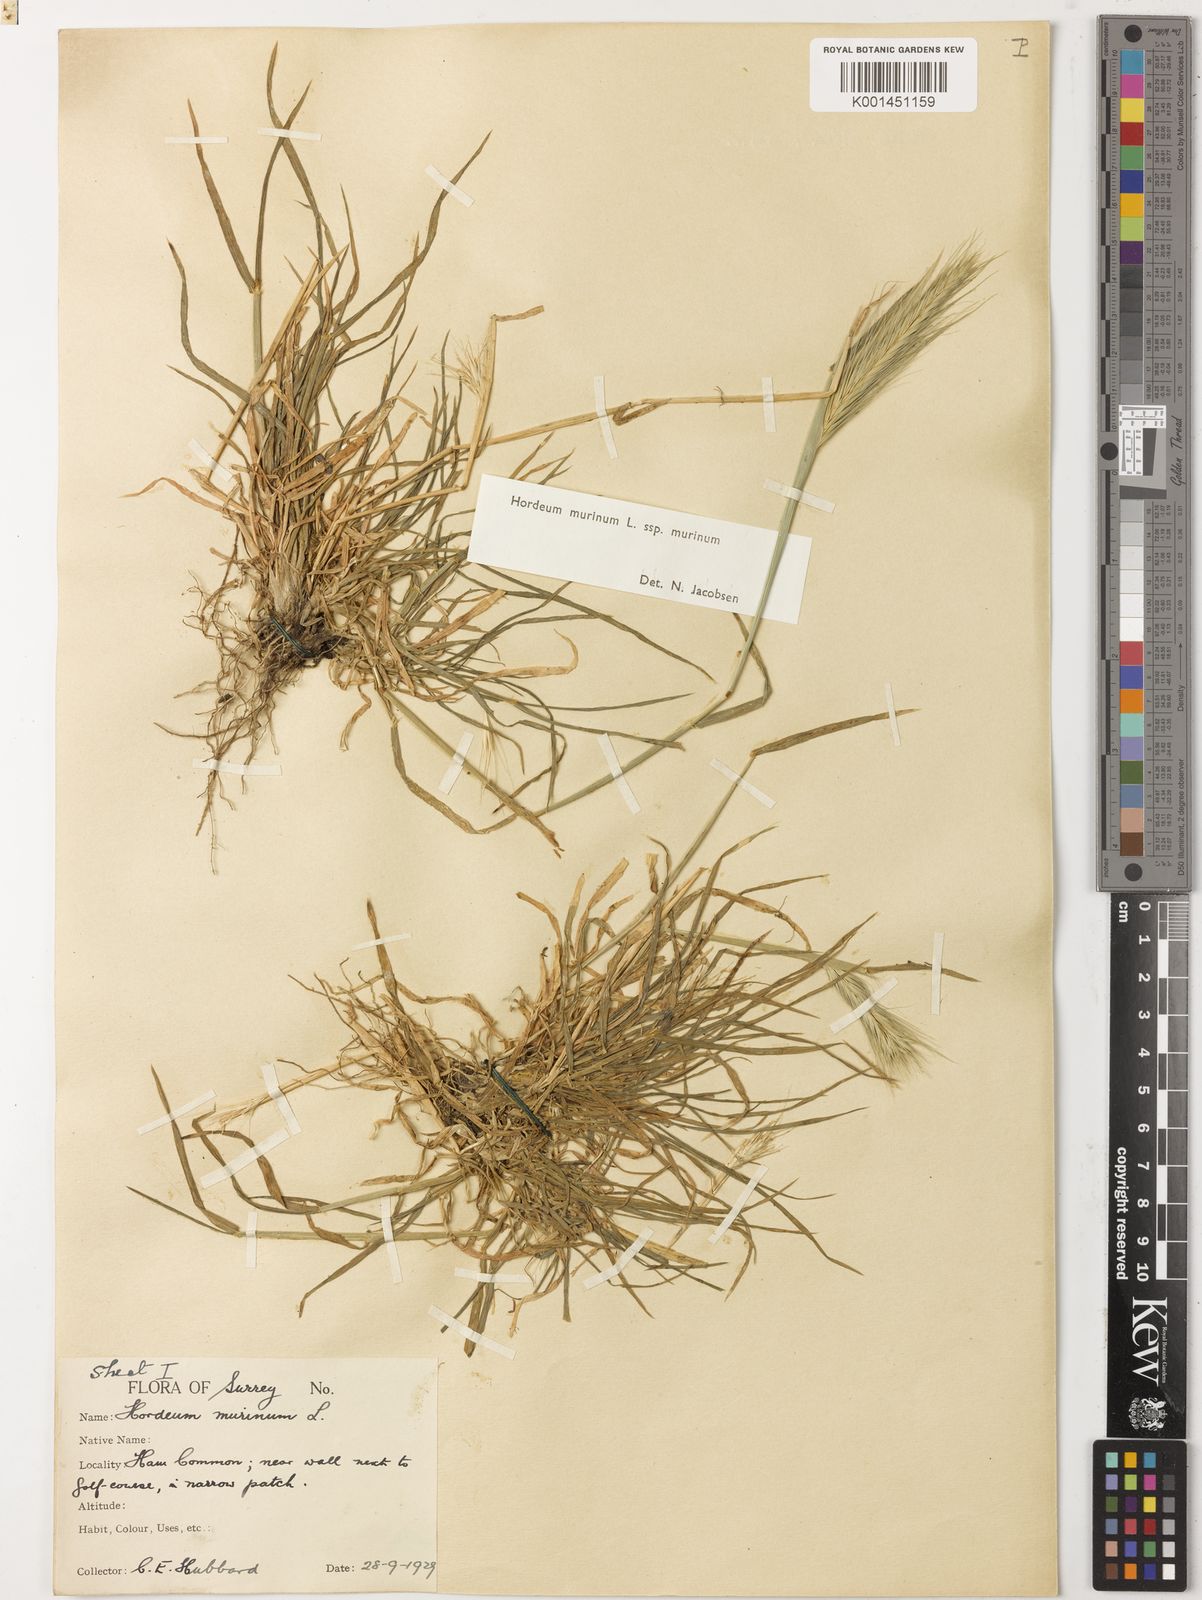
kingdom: Plantae
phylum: Tracheophyta
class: Liliopsida
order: Poales
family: Poaceae
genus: Hordeum
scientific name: Hordeum murinum
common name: Wall barley
